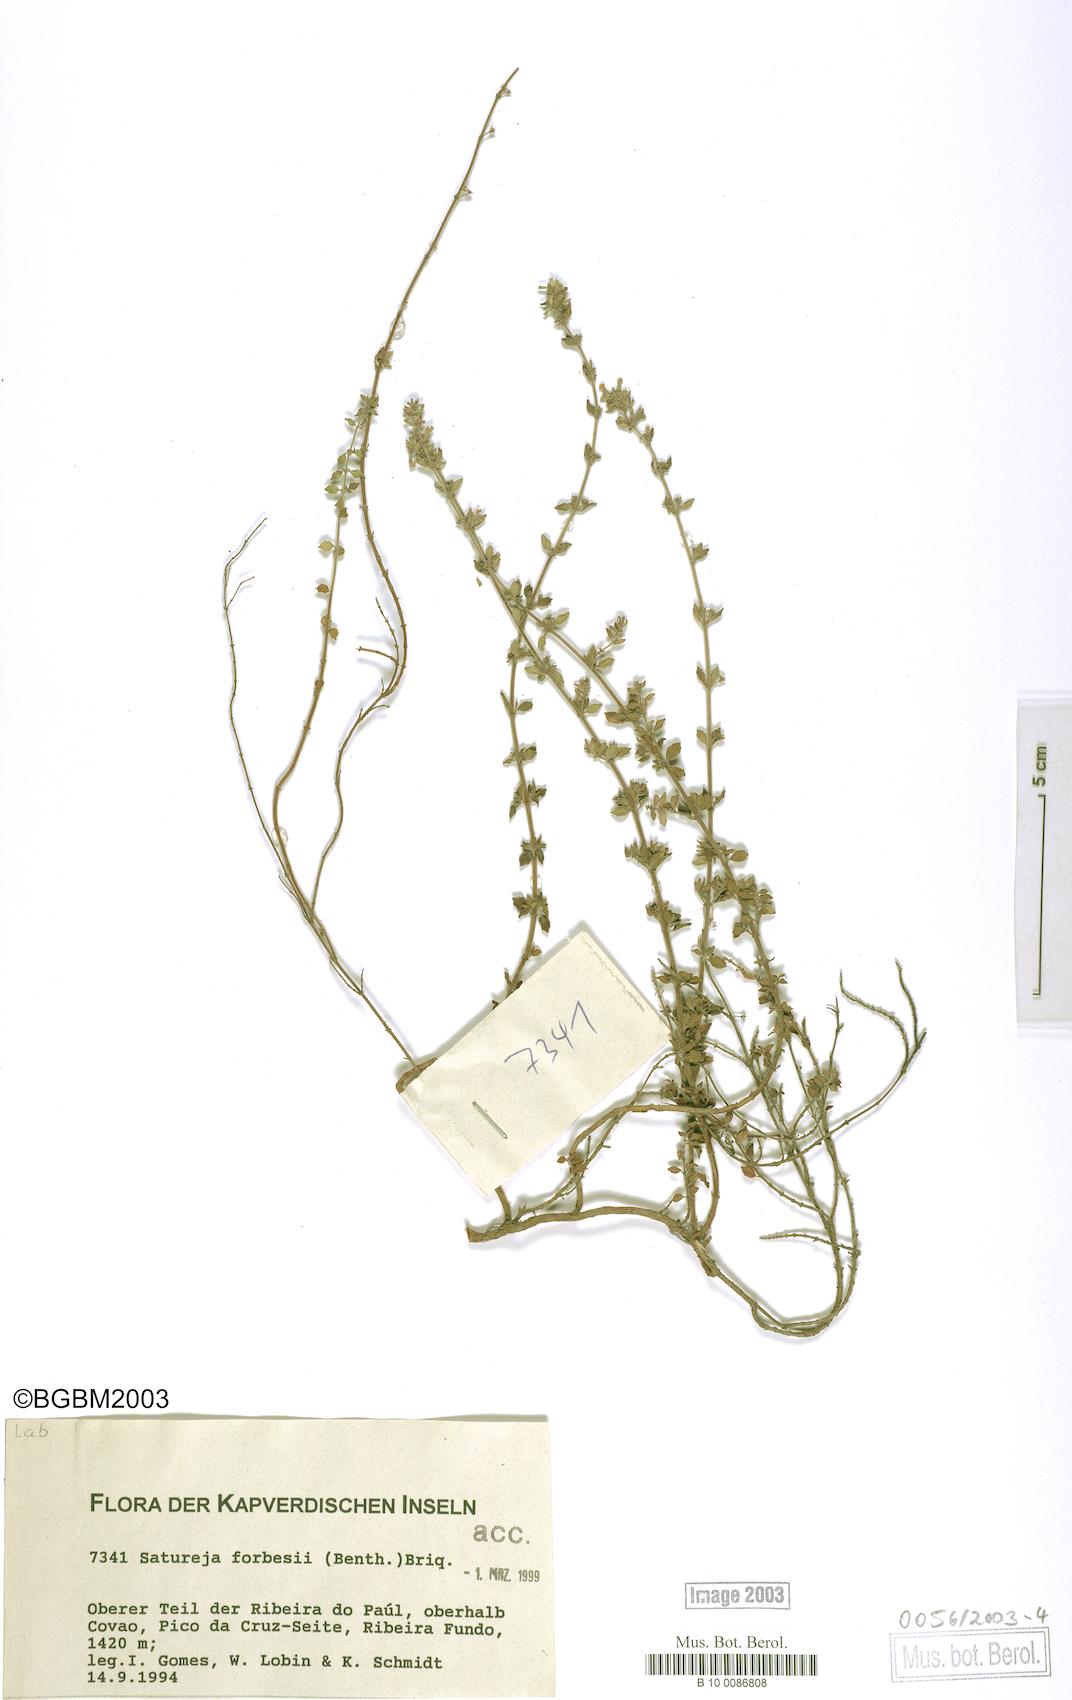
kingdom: Plantae
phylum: Tracheophyta
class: Magnoliopsida
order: Lamiales
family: Lamiaceae
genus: Micromeria
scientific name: Micromeria forbesii
